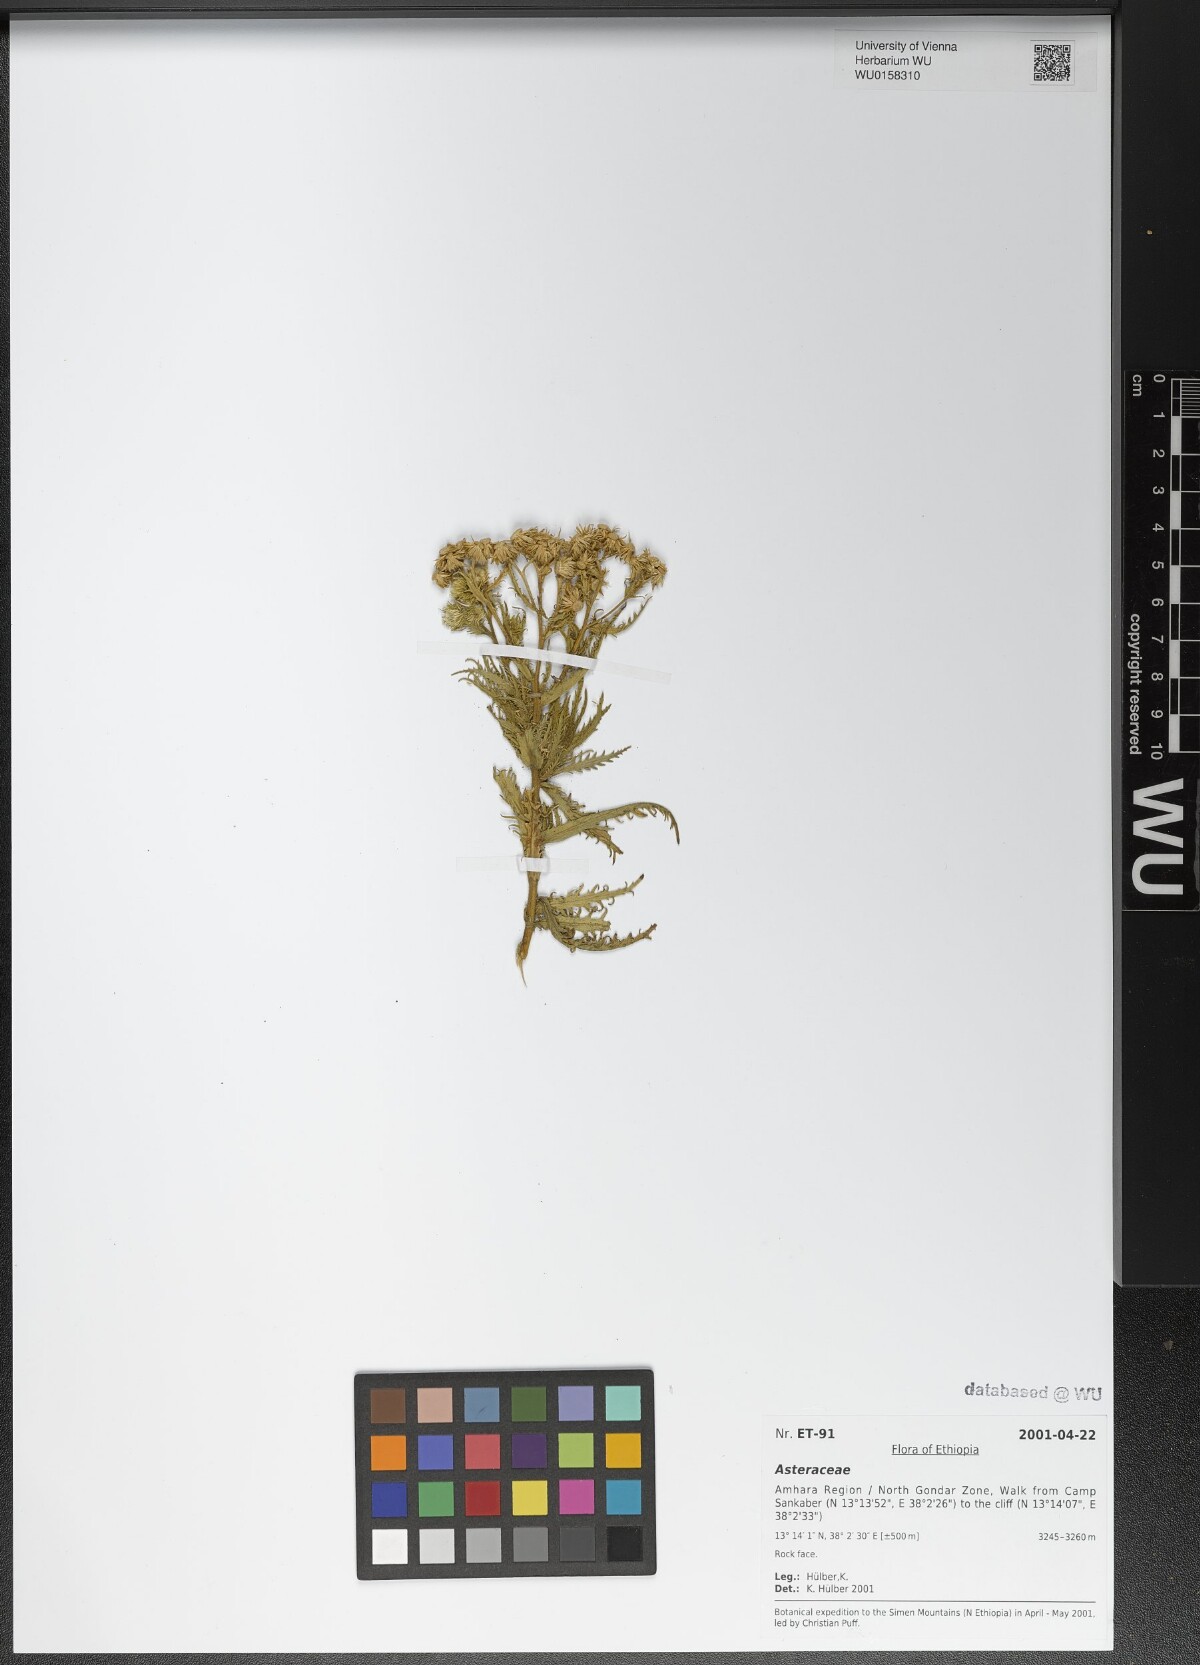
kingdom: Plantae
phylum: Tracheophyta
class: Magnoliopsida
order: Asterales
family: Asteraceae
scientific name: Asteraceae
